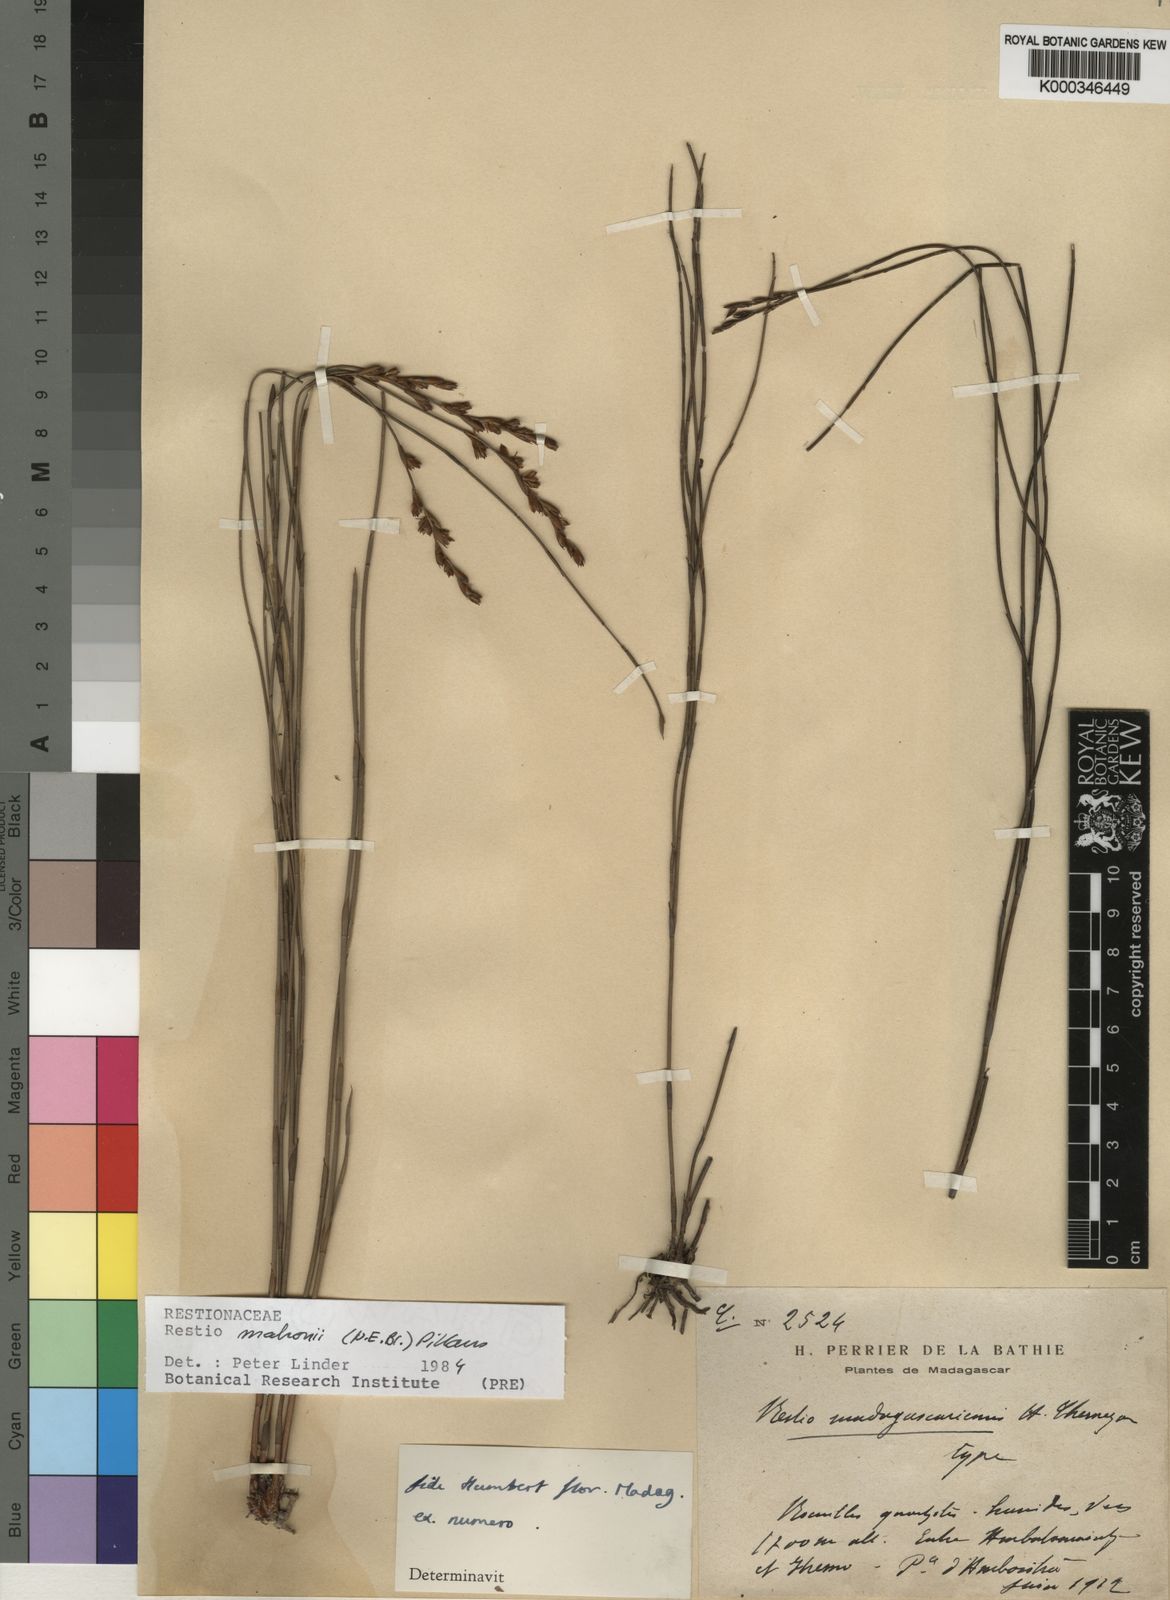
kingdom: Plantae
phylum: Tracheophyta
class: Liliopsida
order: Poales
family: Restionaceae
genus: Platycaulos
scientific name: Platycaulos mahonii
